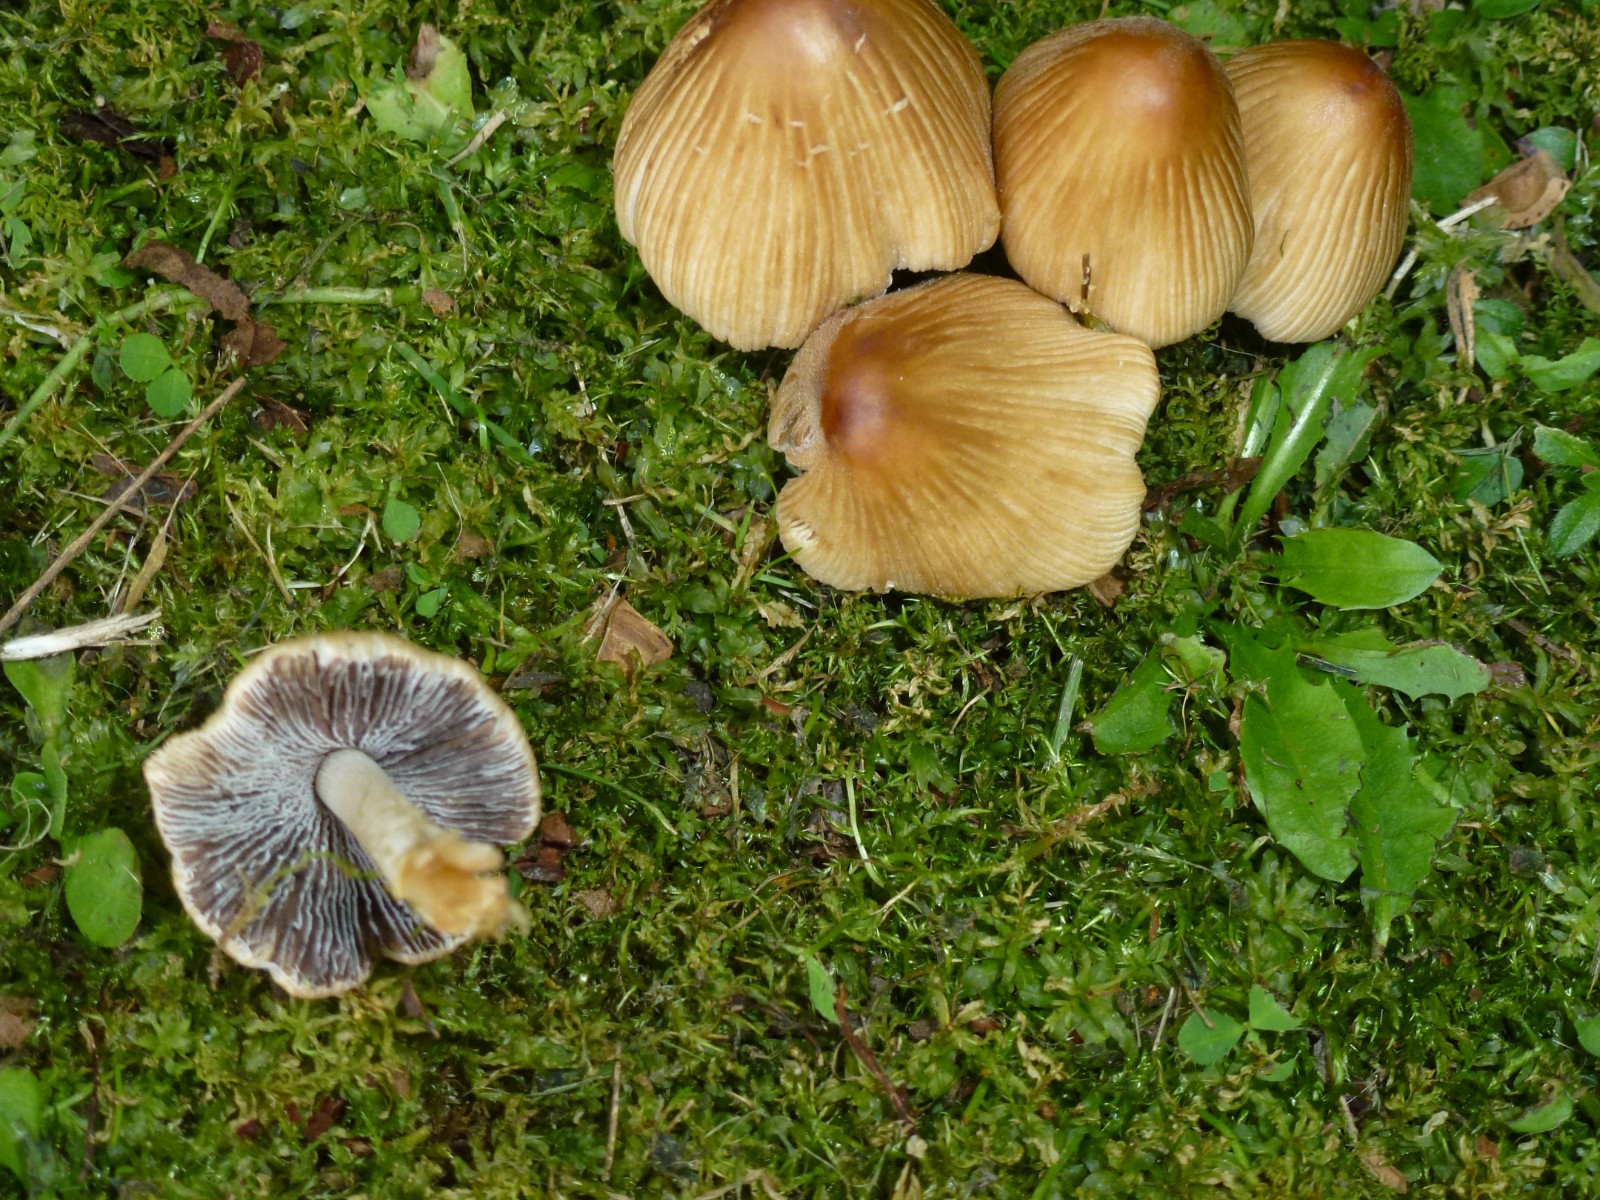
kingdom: Fungi
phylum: Basidiomycota
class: Agaricomycetes
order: Agaricales
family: Psathyrellaceae
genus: Coprinellus
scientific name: Coprinellus
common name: blækhat
